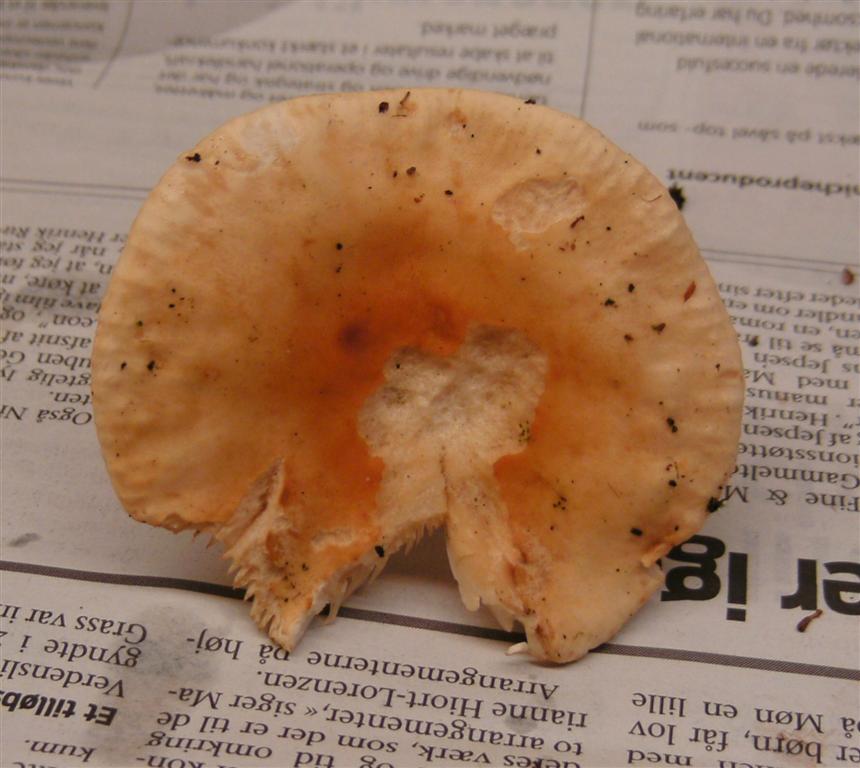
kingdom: Fungi
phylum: Basidiomycota
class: Agaricomycetes
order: Russulales
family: Russulaceae
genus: Russula
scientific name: Russula solaris
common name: sol-skørhat
